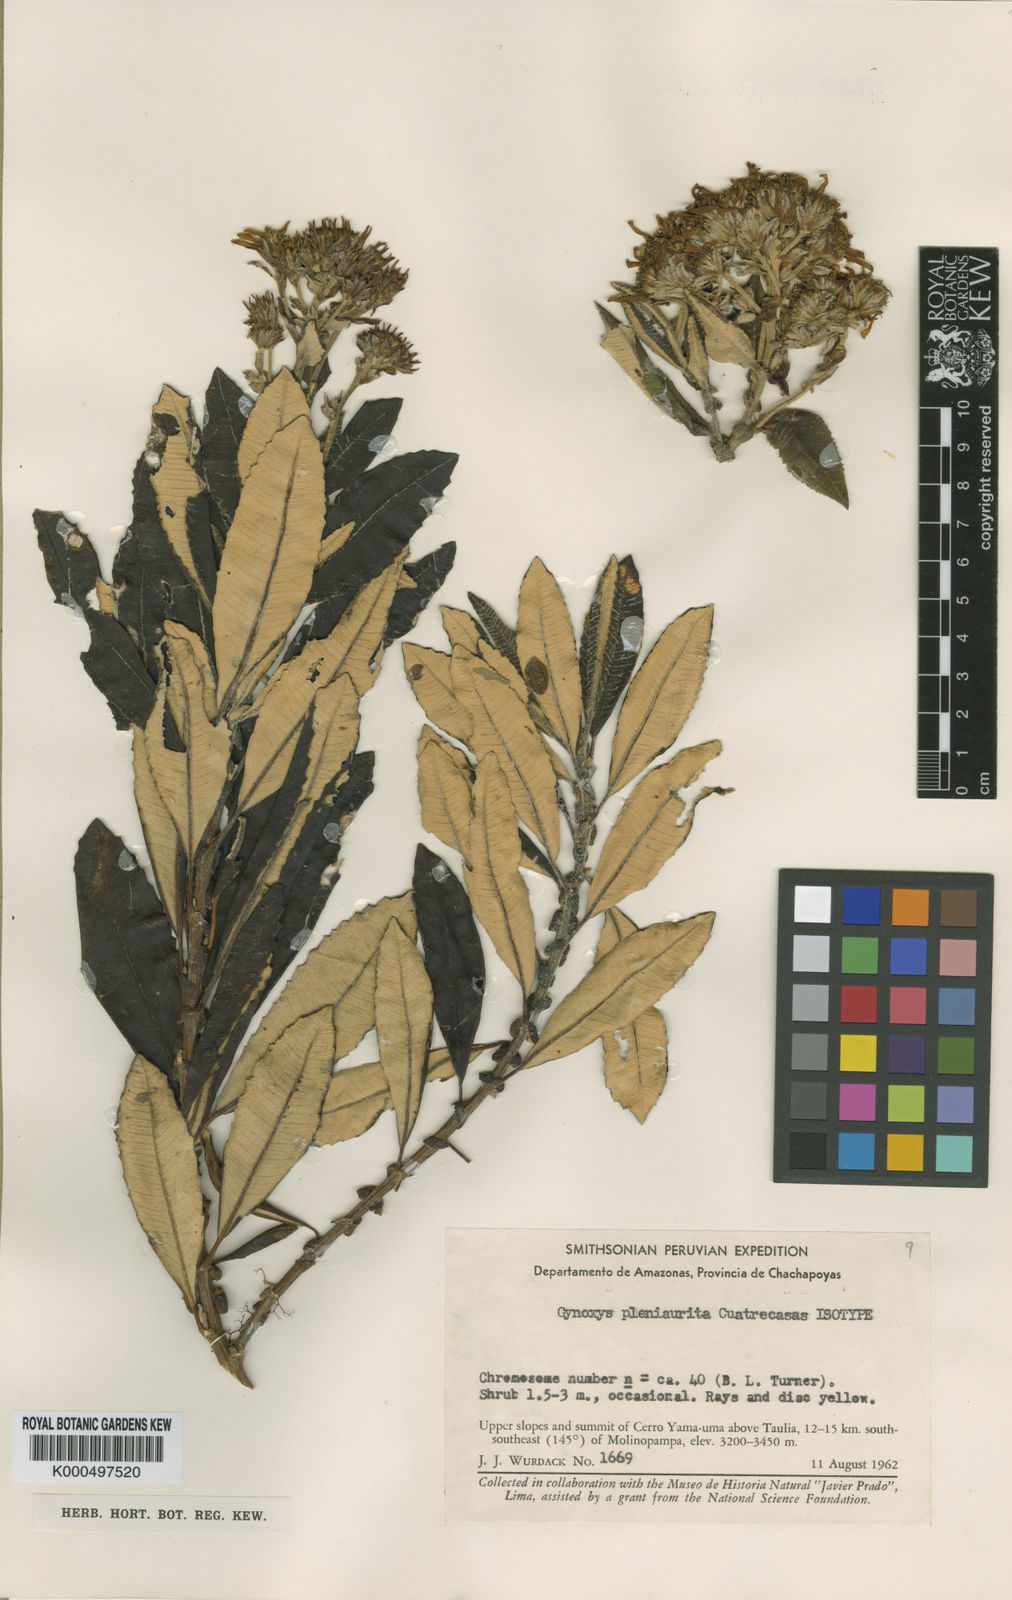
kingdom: Plantae
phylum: Tracheophyta
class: Magnoliopsida
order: Asterales
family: Asteraceae
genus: Nordenstamia
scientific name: Nordenstamia
